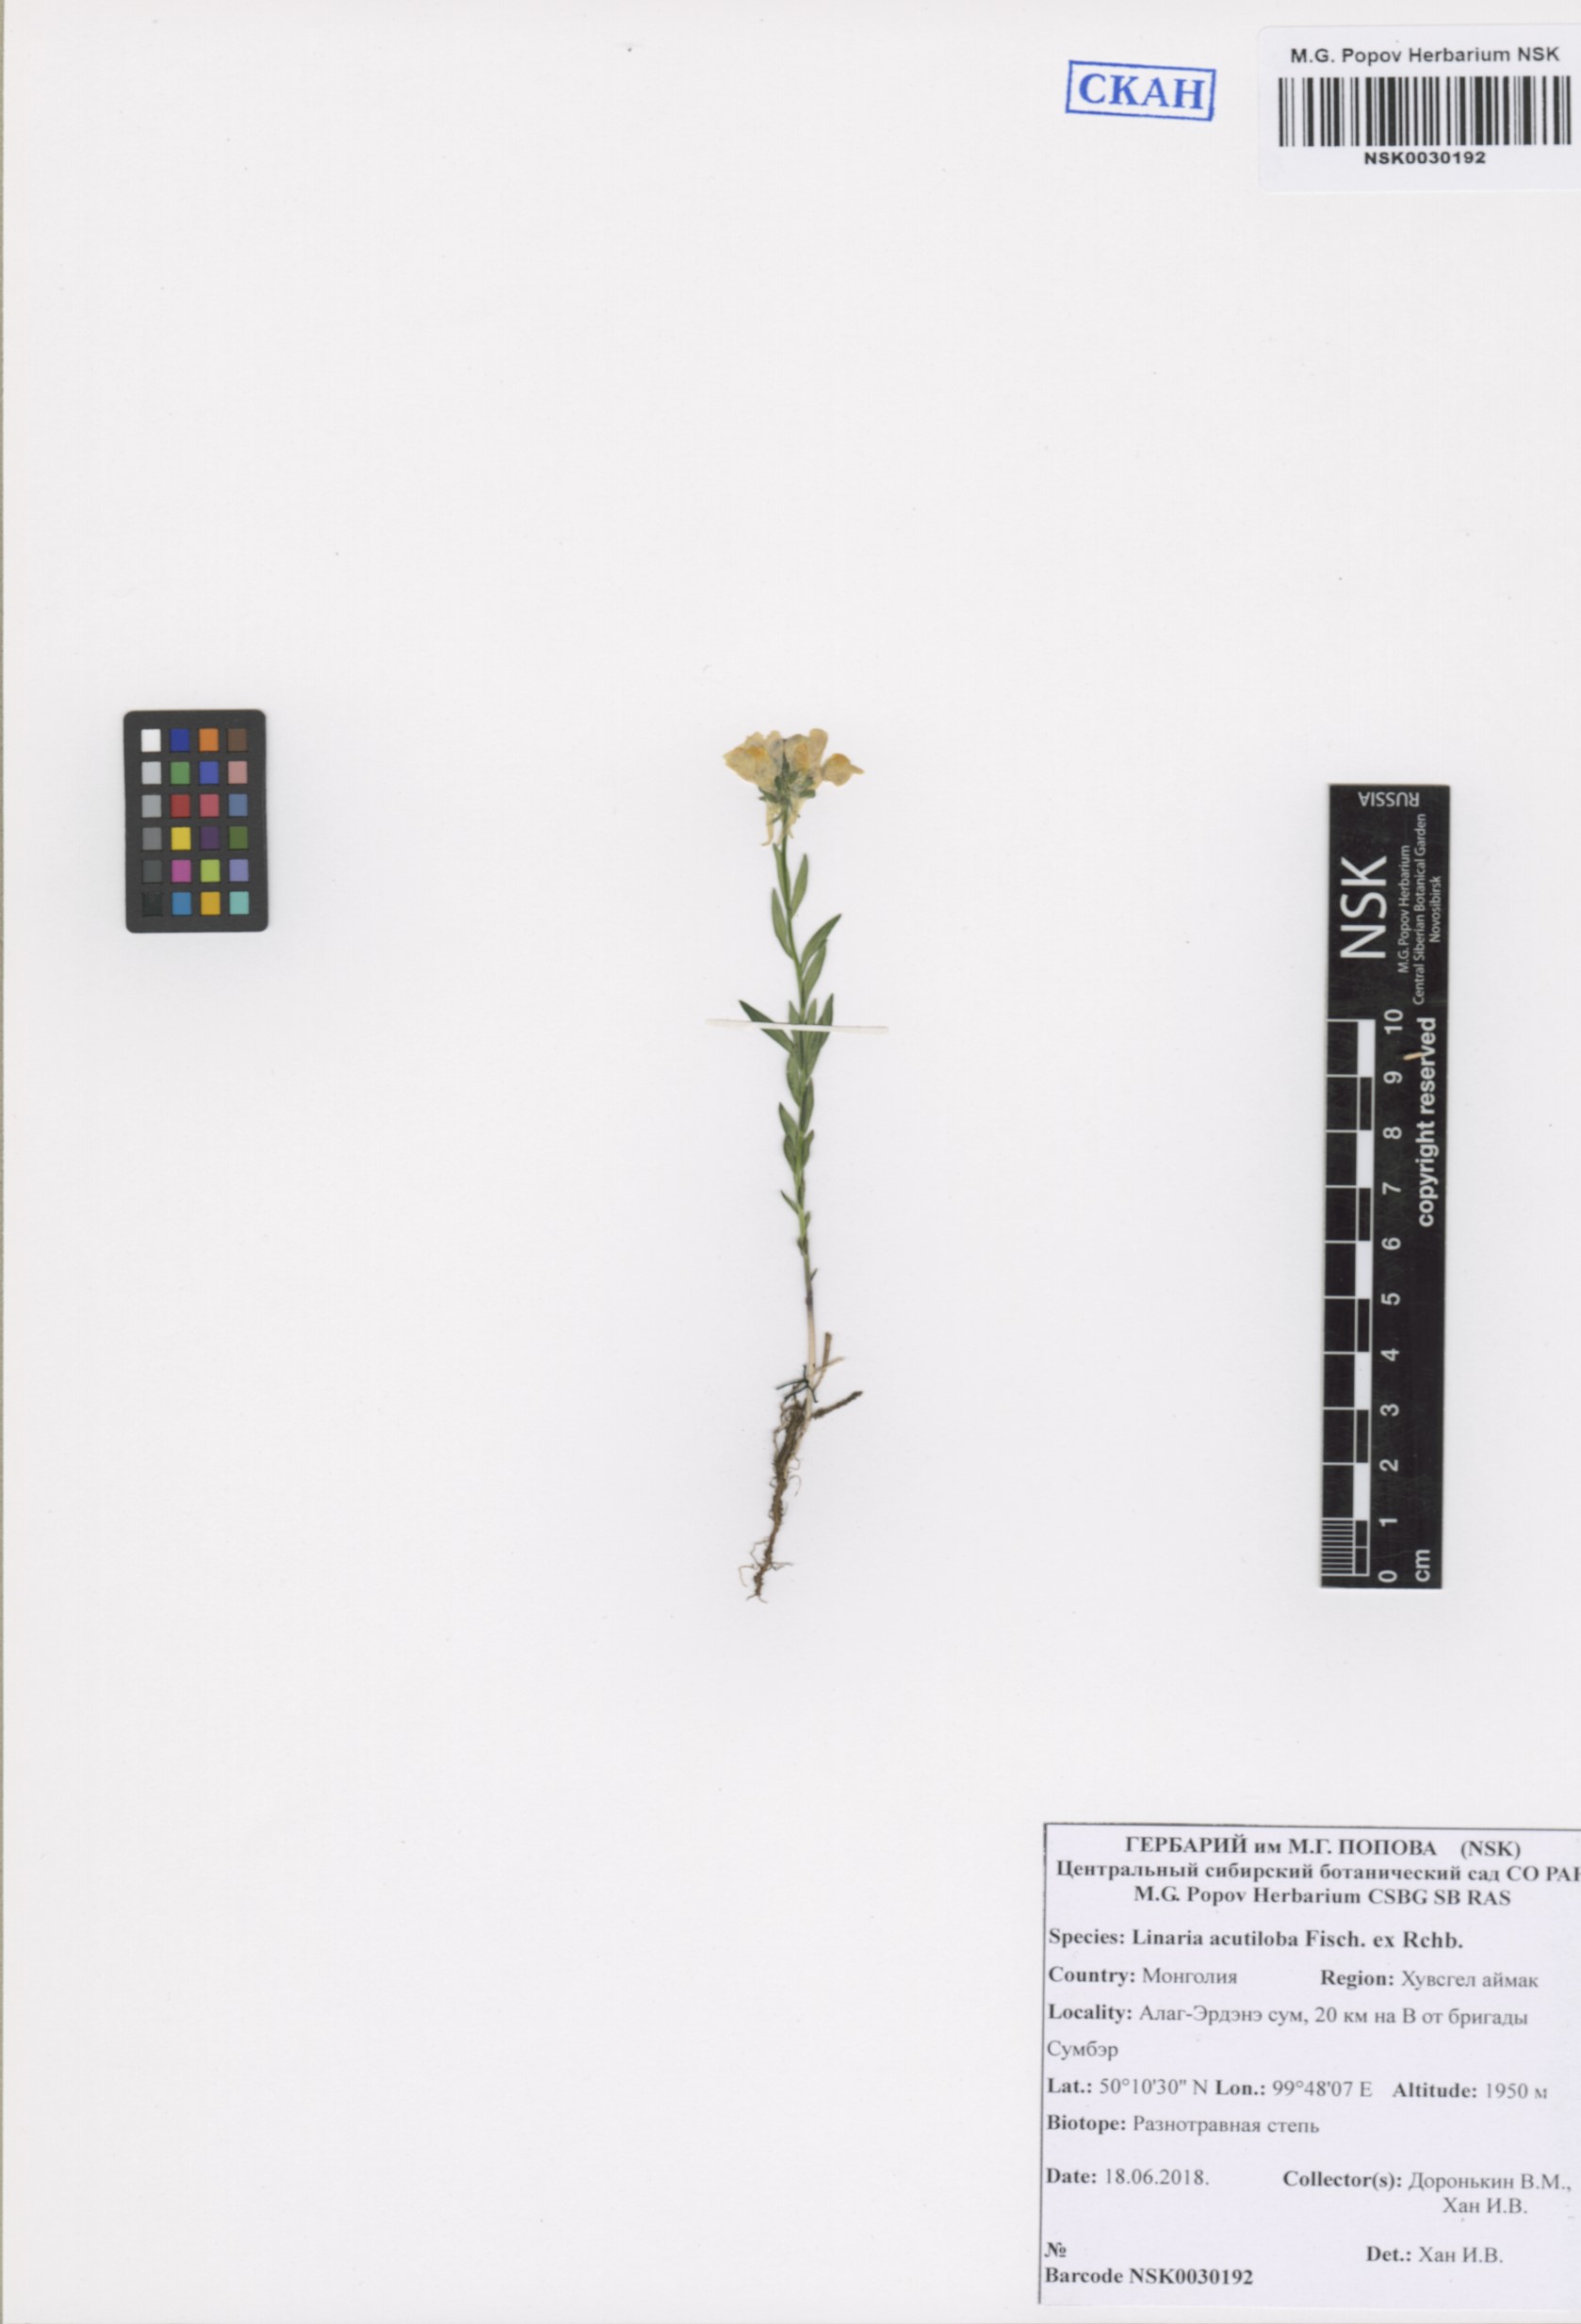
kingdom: Plantae
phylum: Tracheophyta
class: Magnoliopsida
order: Lamiales
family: Plantaginaceae
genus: Linaria
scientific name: Linaria acutiloba
